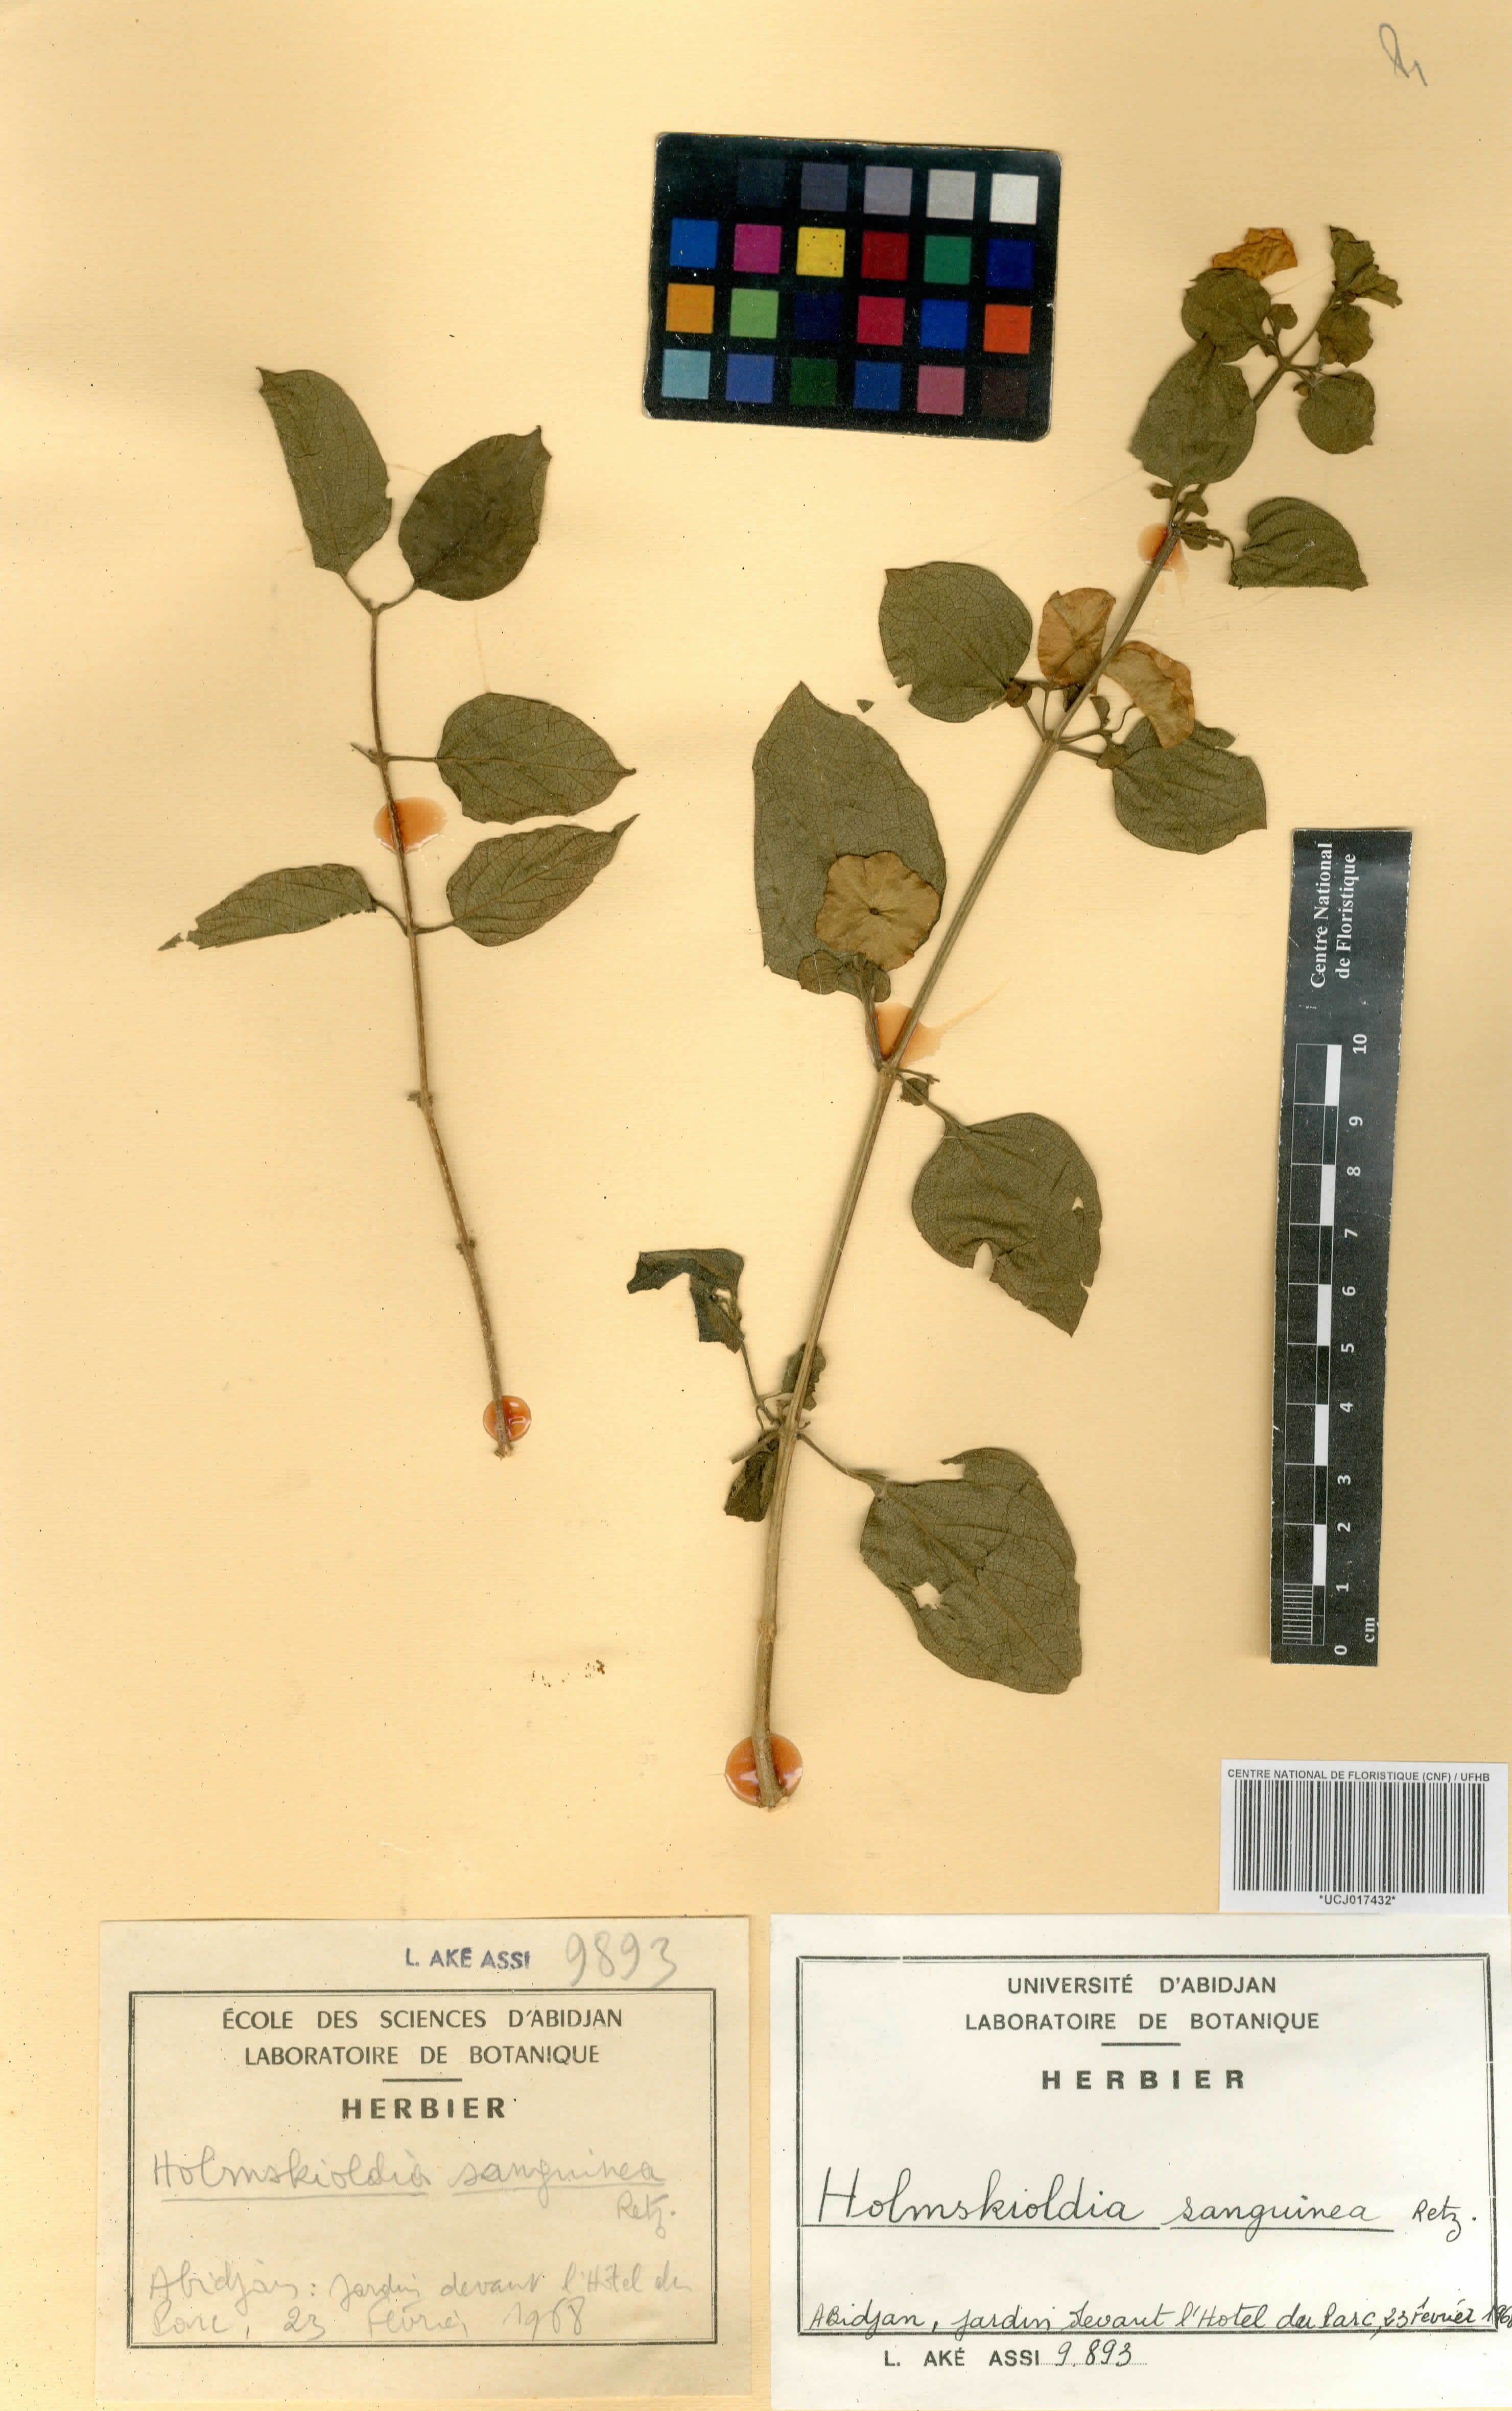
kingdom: Plantae
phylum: Tracheophyta
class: Magnoliopsida
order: Lamiales
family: Lamiaceae
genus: Holmskioldia
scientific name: Holmskioldia sanguinea
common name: Chinese hatplant
